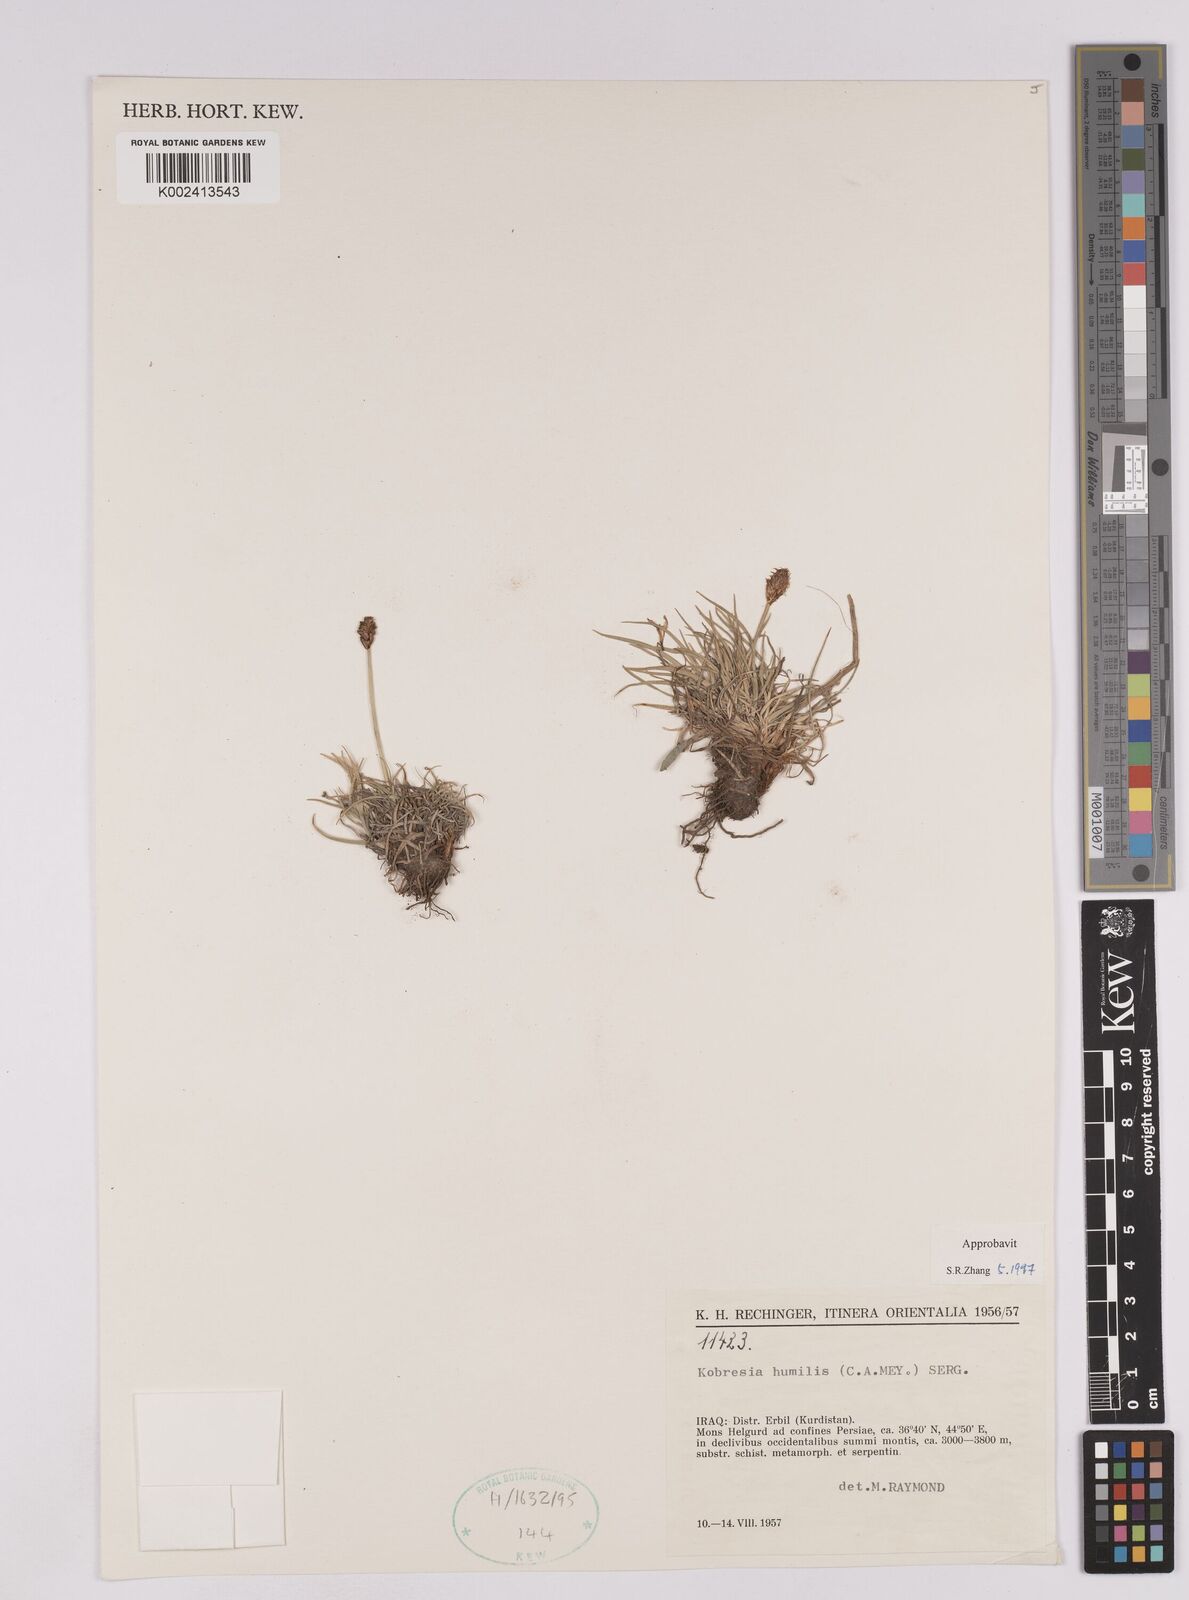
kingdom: Plantae
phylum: Tracheophyta
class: Liliopsida
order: Poales
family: Cyperaceae
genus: Carex
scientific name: Carex alatauensis
